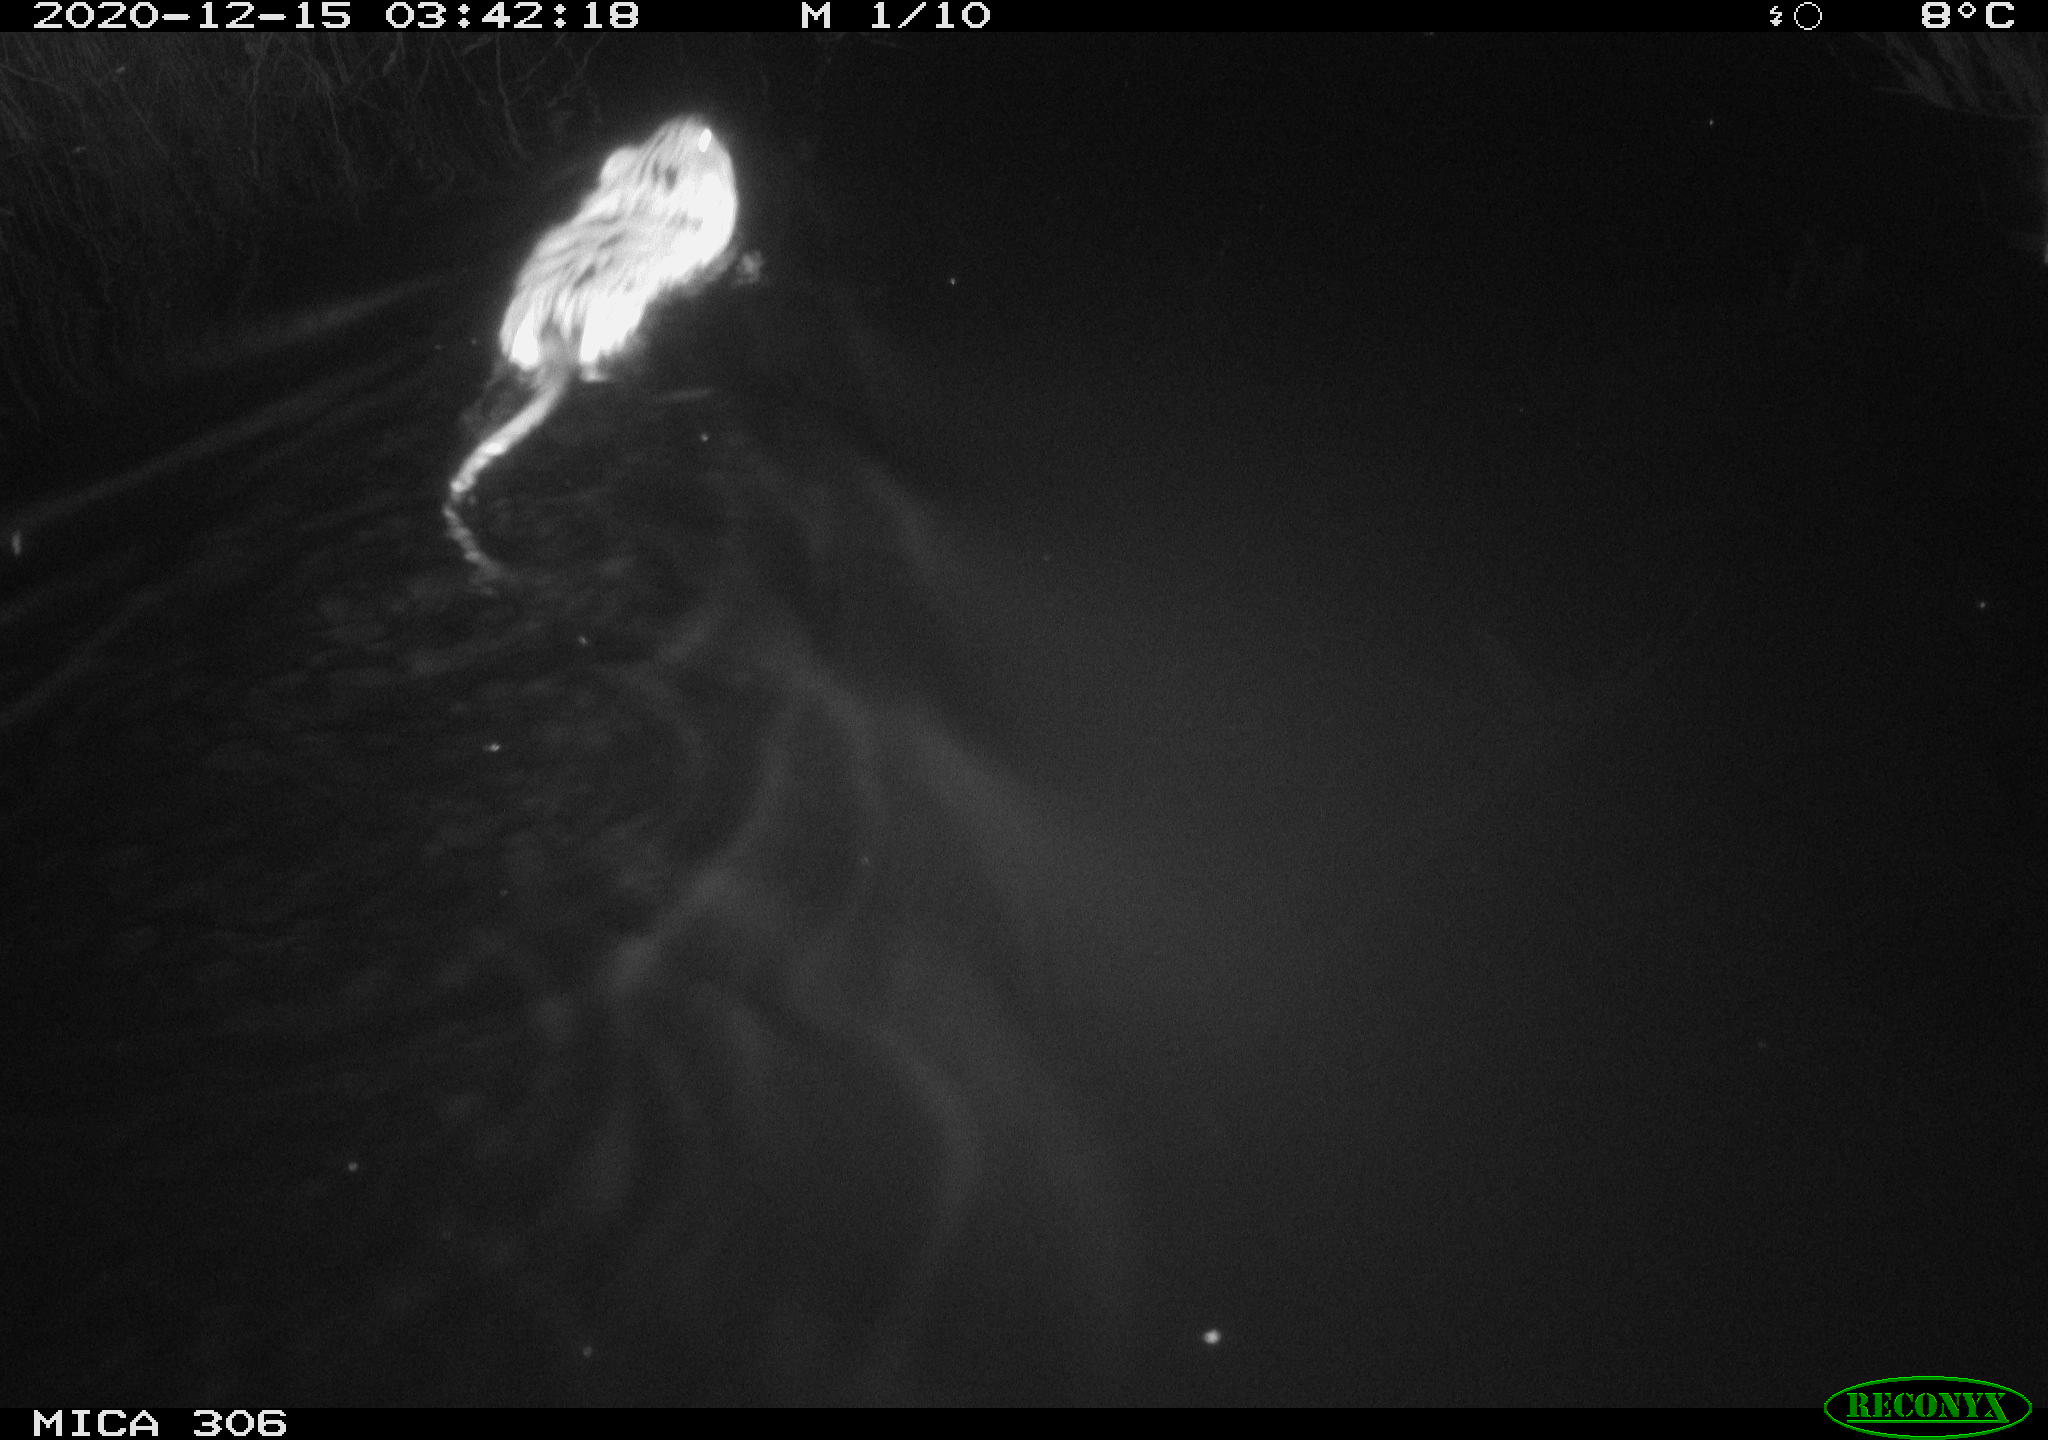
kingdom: Animalia
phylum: Chordata
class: Mammalia
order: Rodentia
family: Cricetidae
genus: Ondatra
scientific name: Ondatra zibethicus
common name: Muskrat
